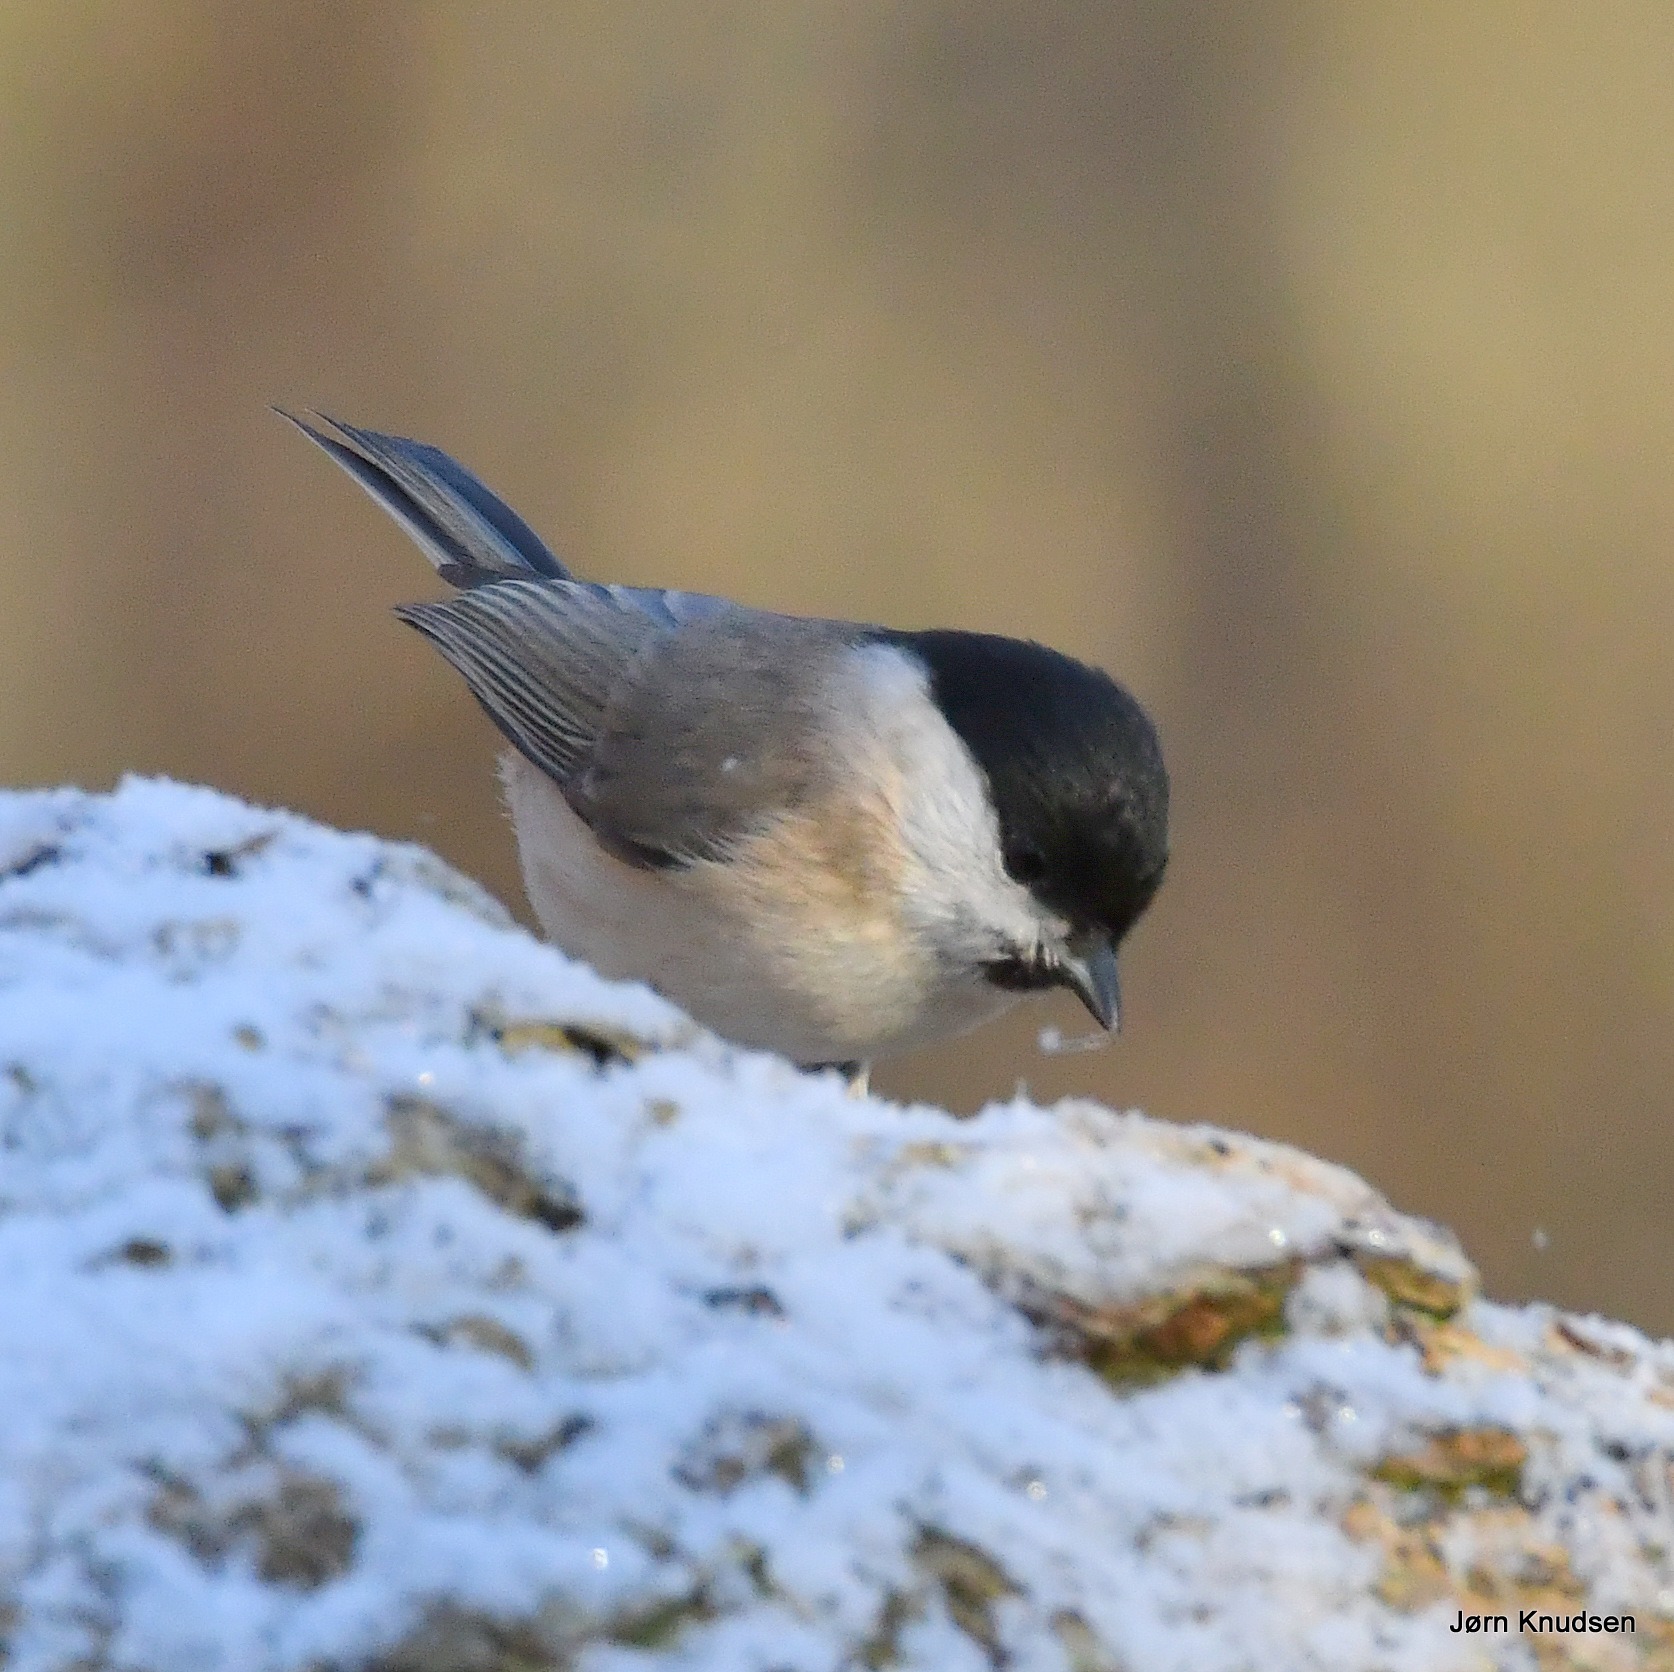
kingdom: Animalia
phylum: Chordata
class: Aves
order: Passeriformes
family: Paridae
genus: Poecile
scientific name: Poecile palustris
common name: Sumpmejse
